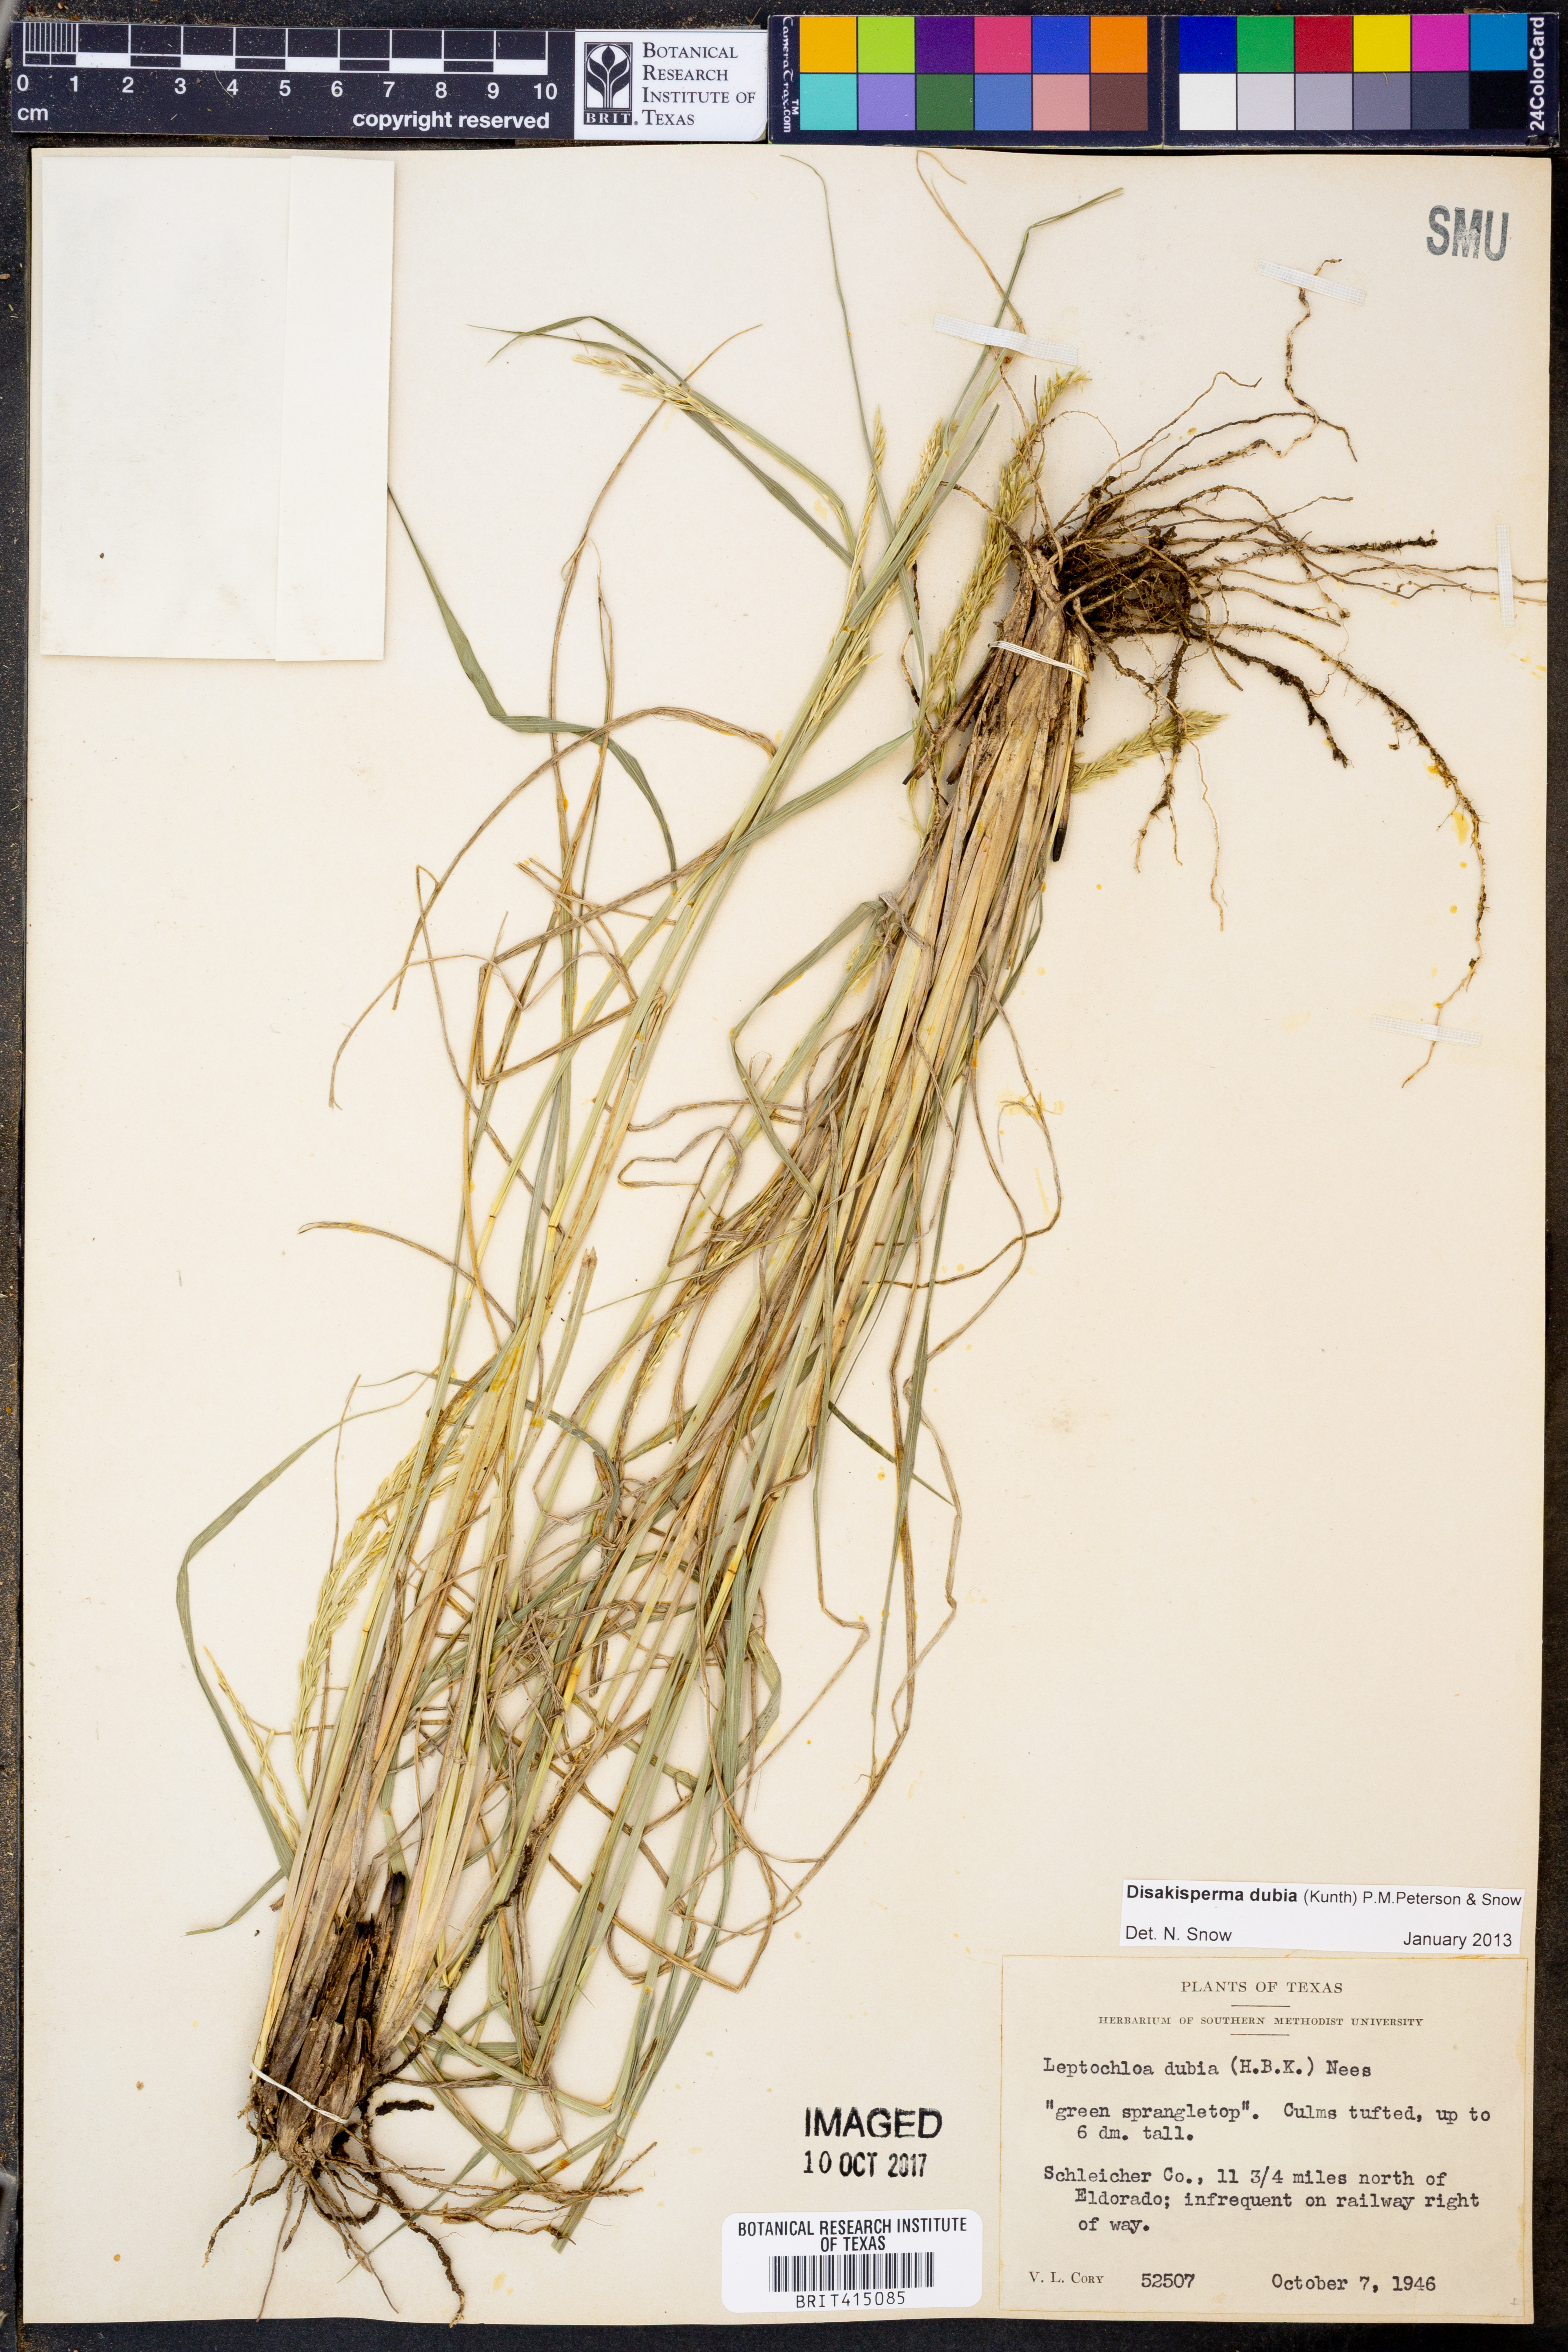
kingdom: Plantae
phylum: Tracheophyta
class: Liliopsida
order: Poales
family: Poaceae
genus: Disakisperma
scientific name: Disakisperma dubium
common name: Green sprangletop
